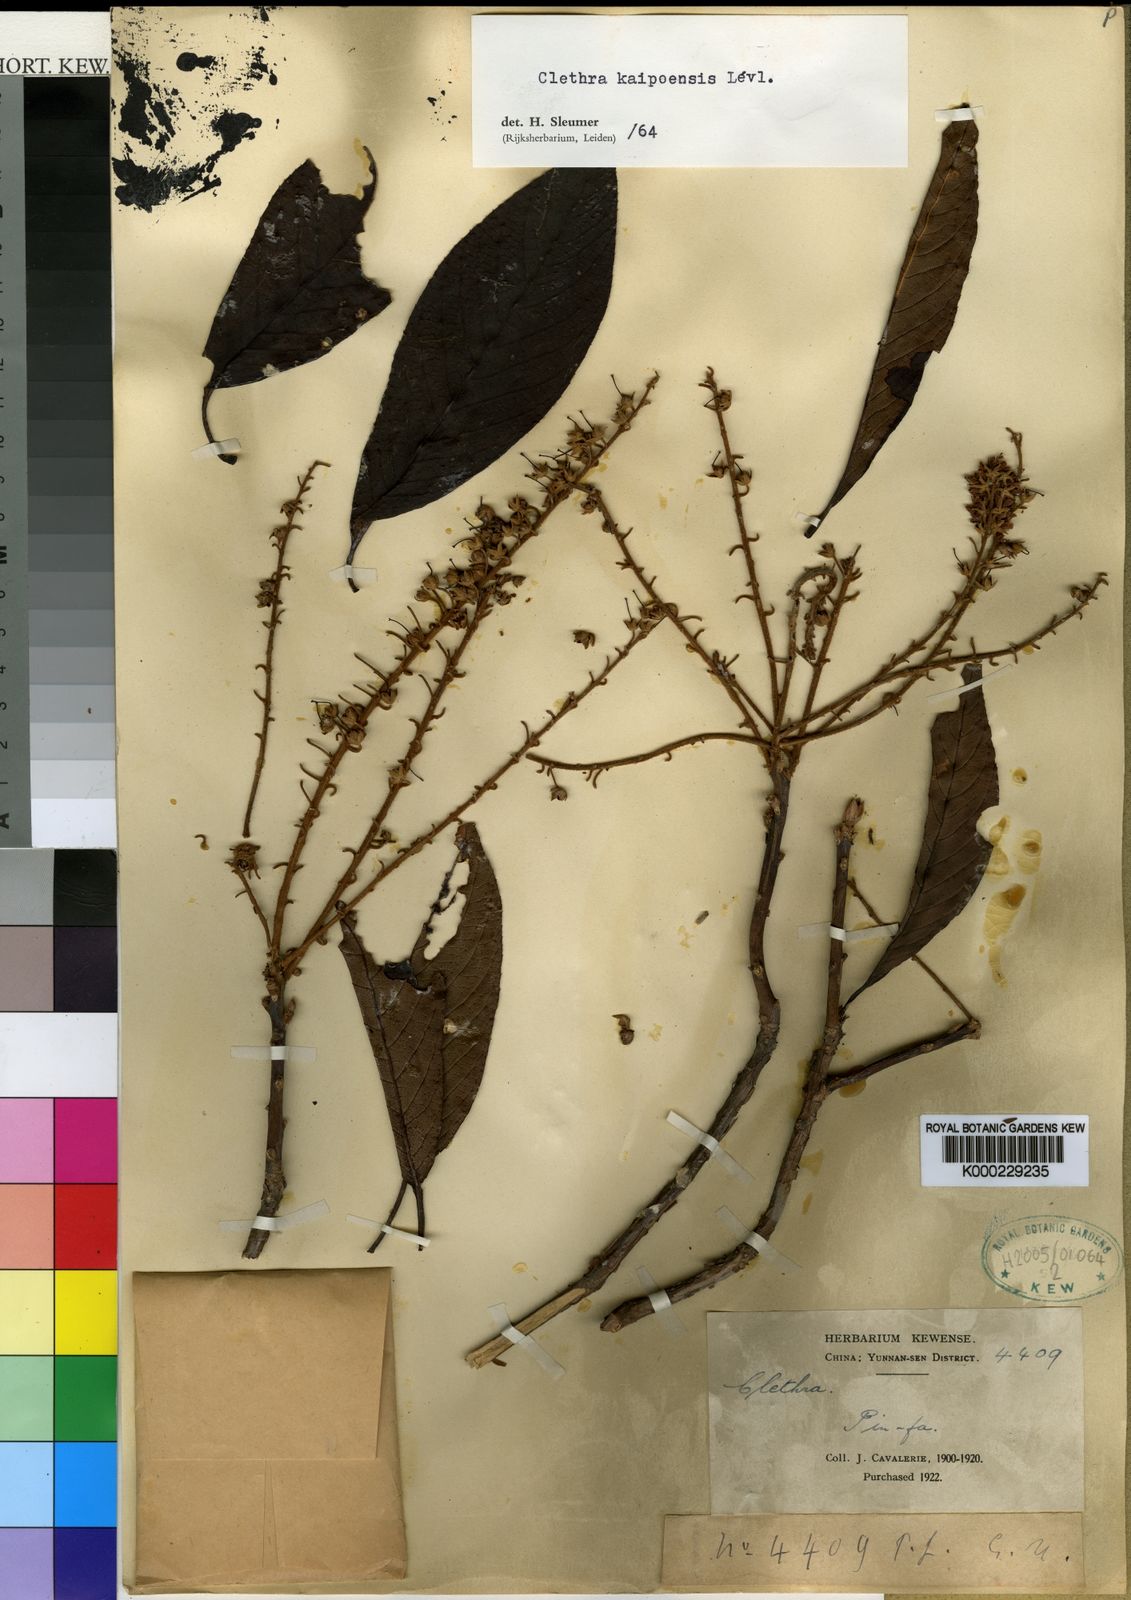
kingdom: Plantae
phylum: Tracheophyta
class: Magnoliopsida
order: Ericales
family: Clethraceae
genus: Clethra
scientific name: Clethra
